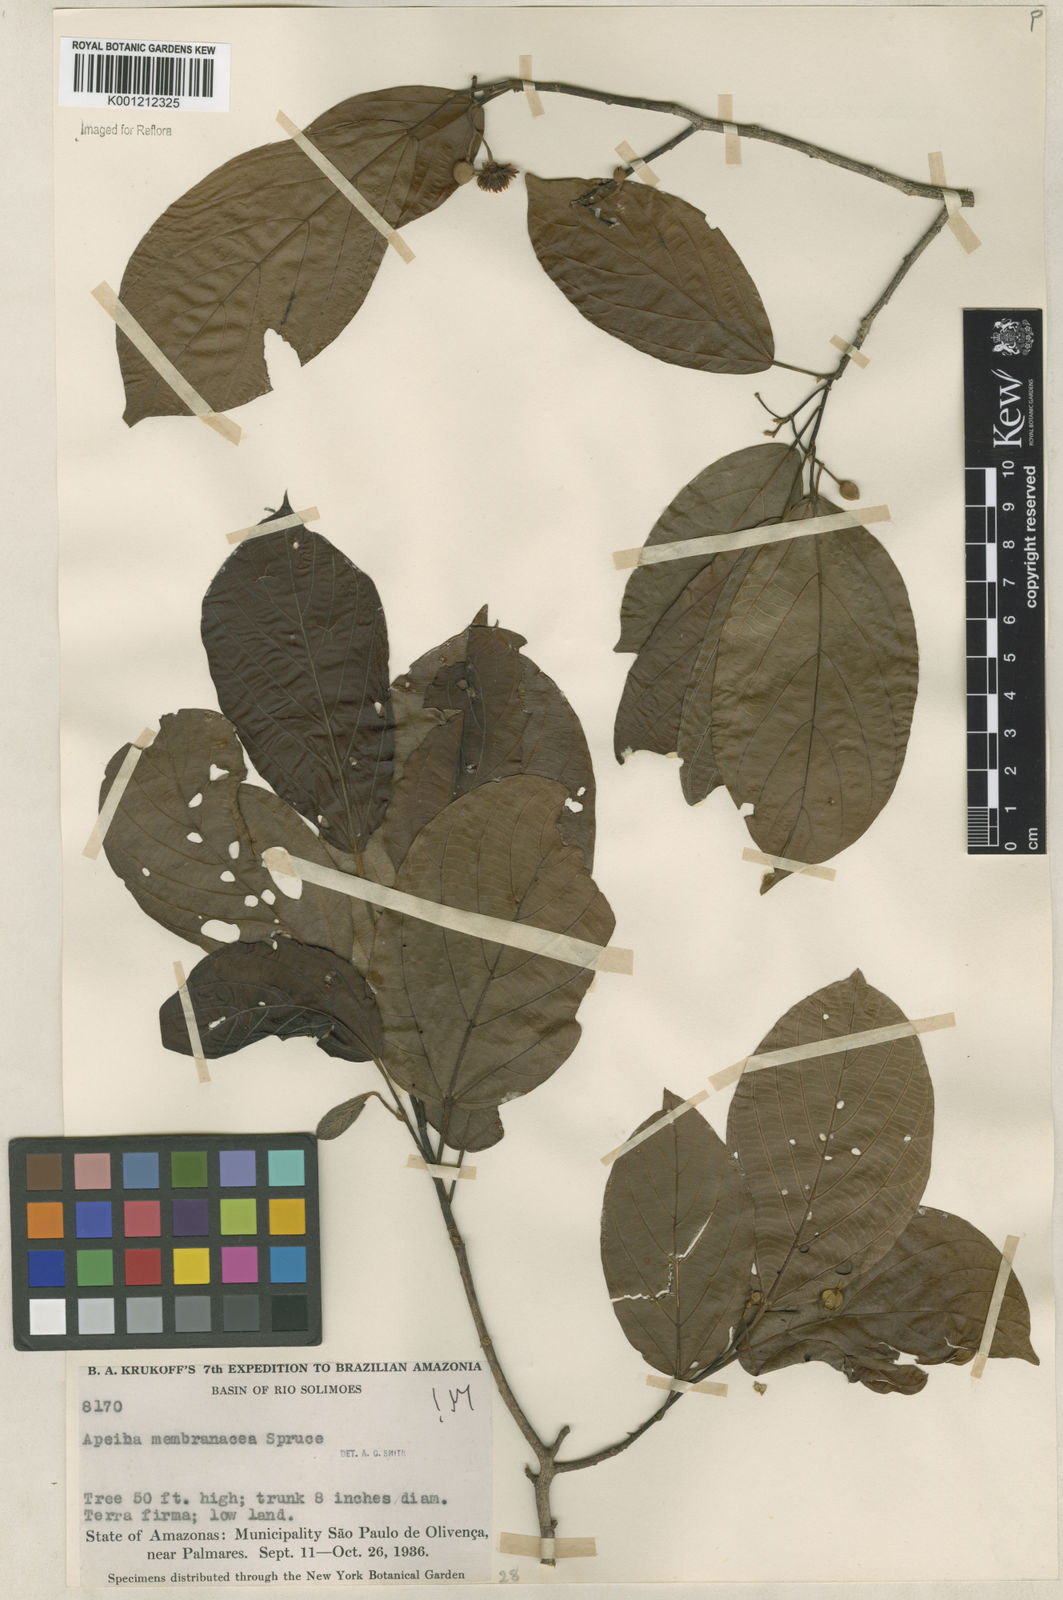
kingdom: Plantae
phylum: Tracheophyta
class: Magnoliopsida
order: Malvales
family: Malvaceae
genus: Apeiba
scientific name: Apeiba membranacea
